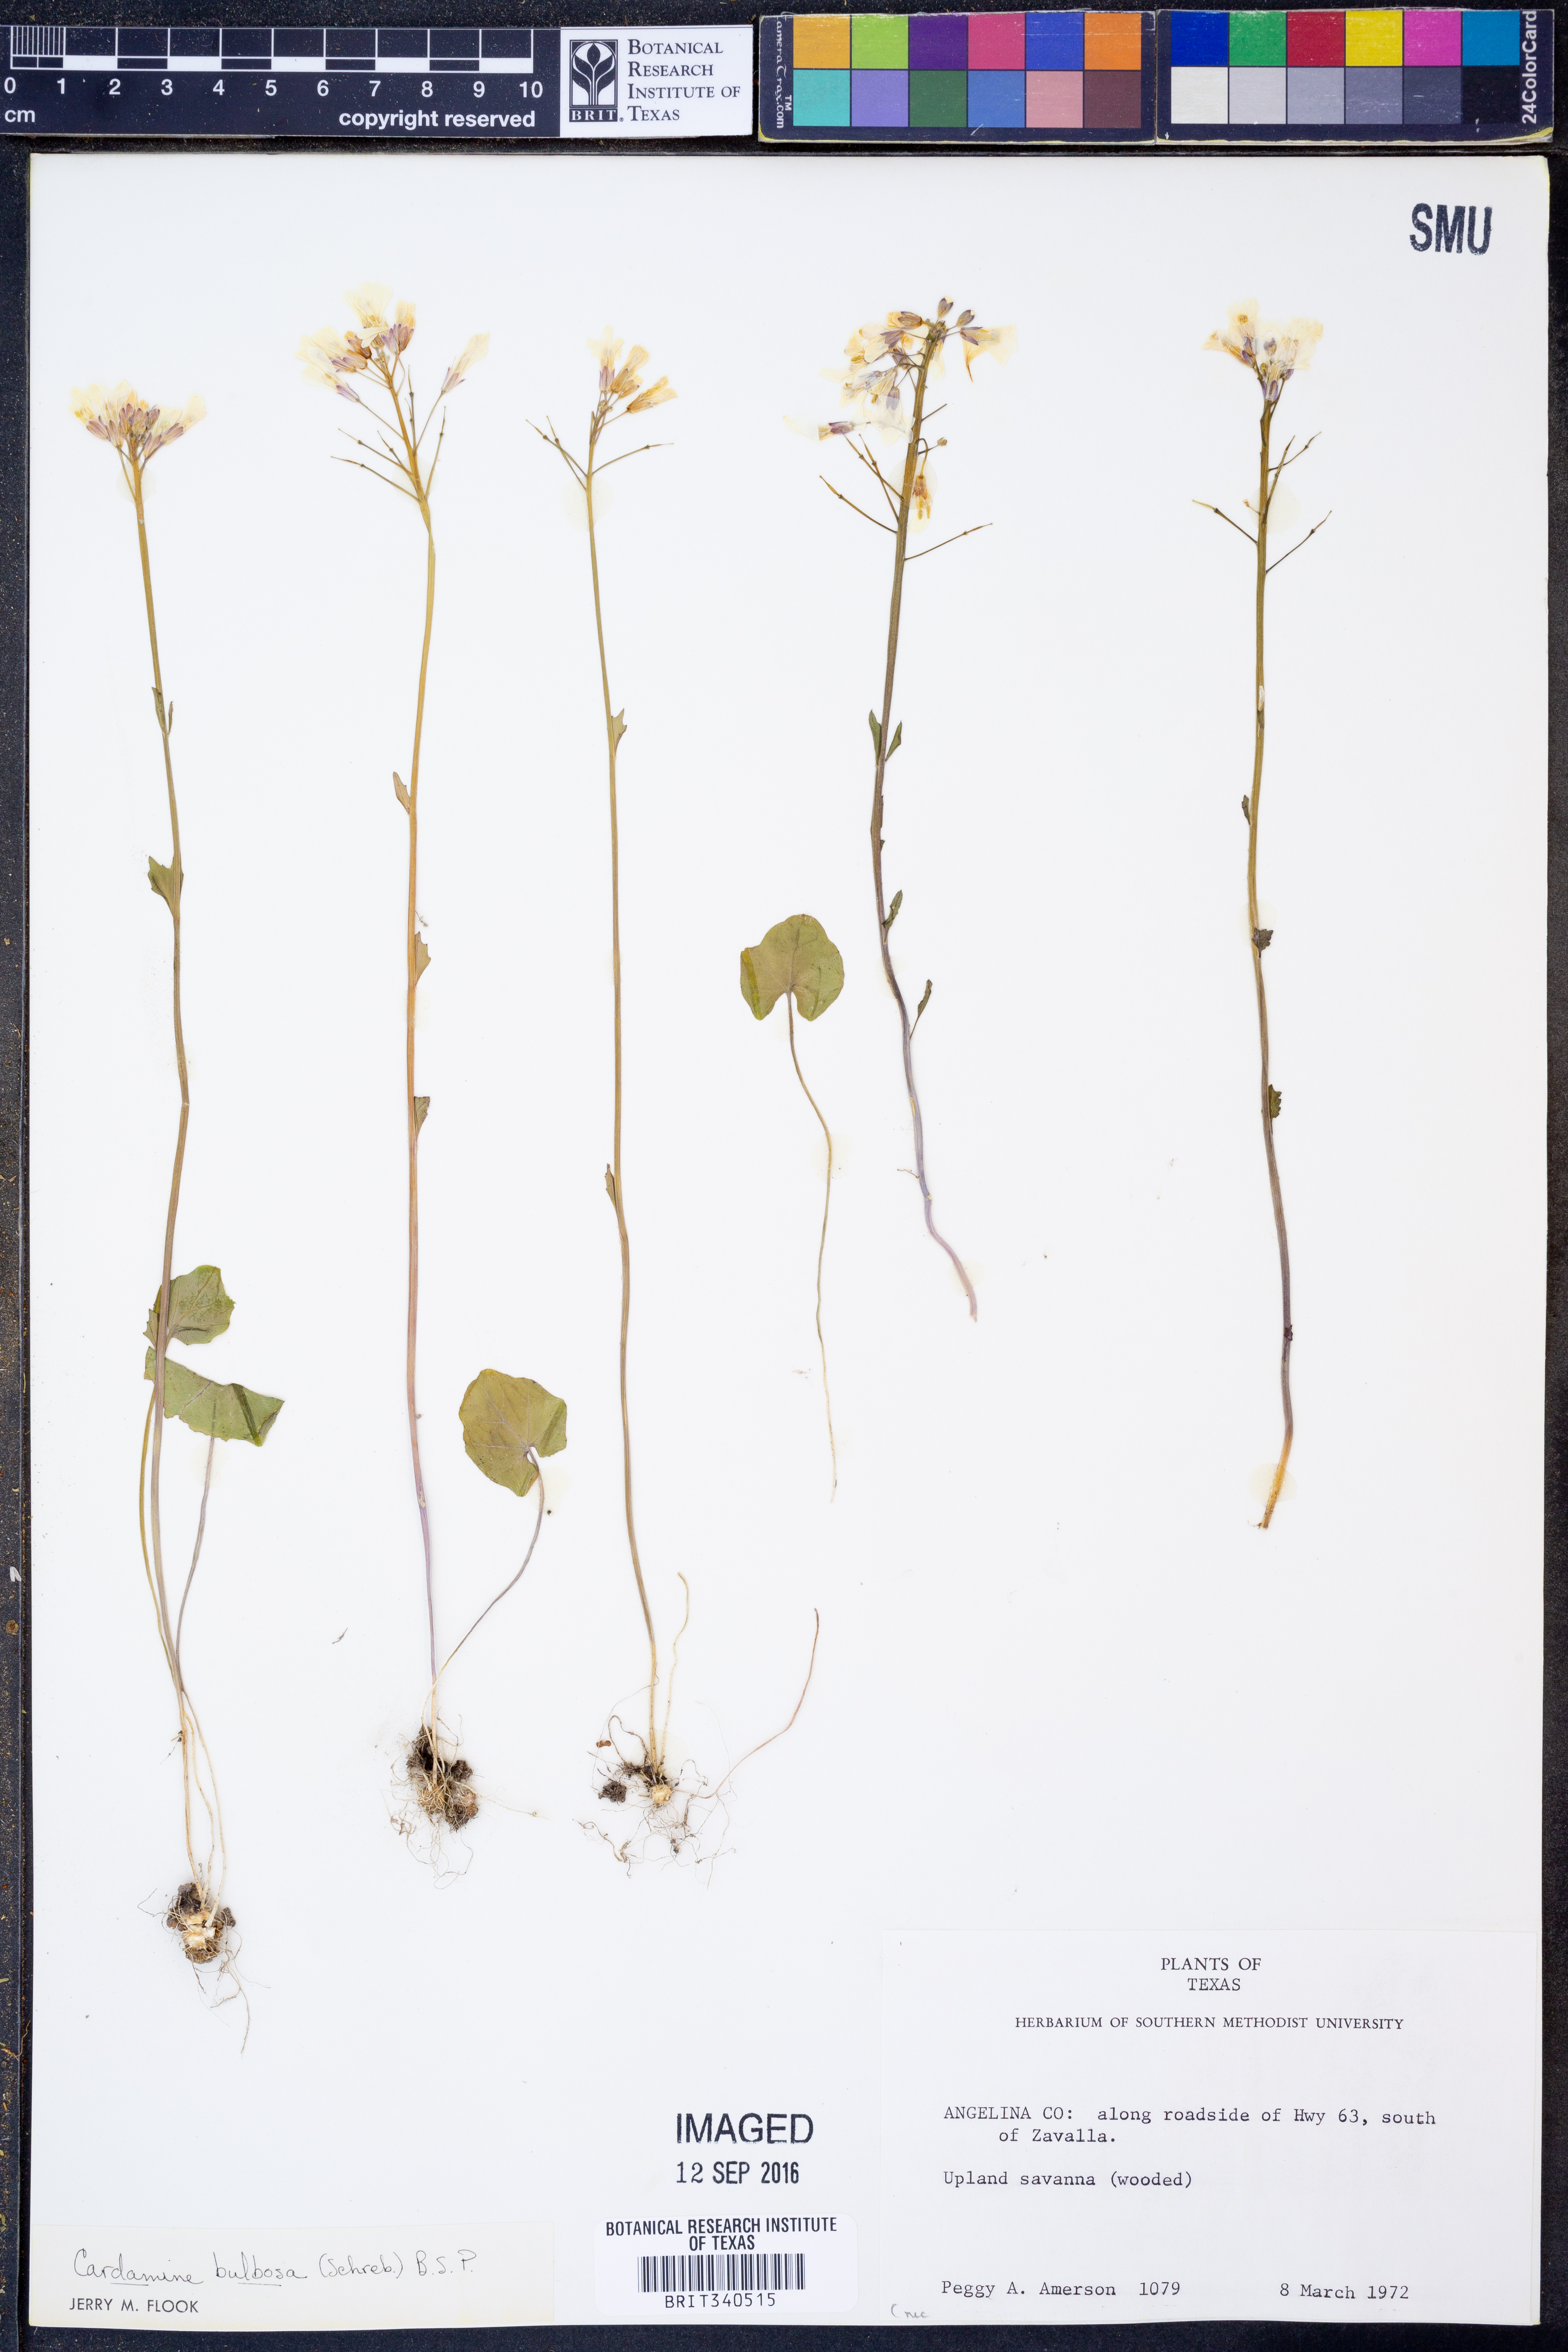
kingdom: Plantae
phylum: Tracheophyta
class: Magnoliopsida
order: Brassicales
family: Brassicaceae
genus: Cardamine
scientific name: Cardamine bulbosa
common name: Spring cress
